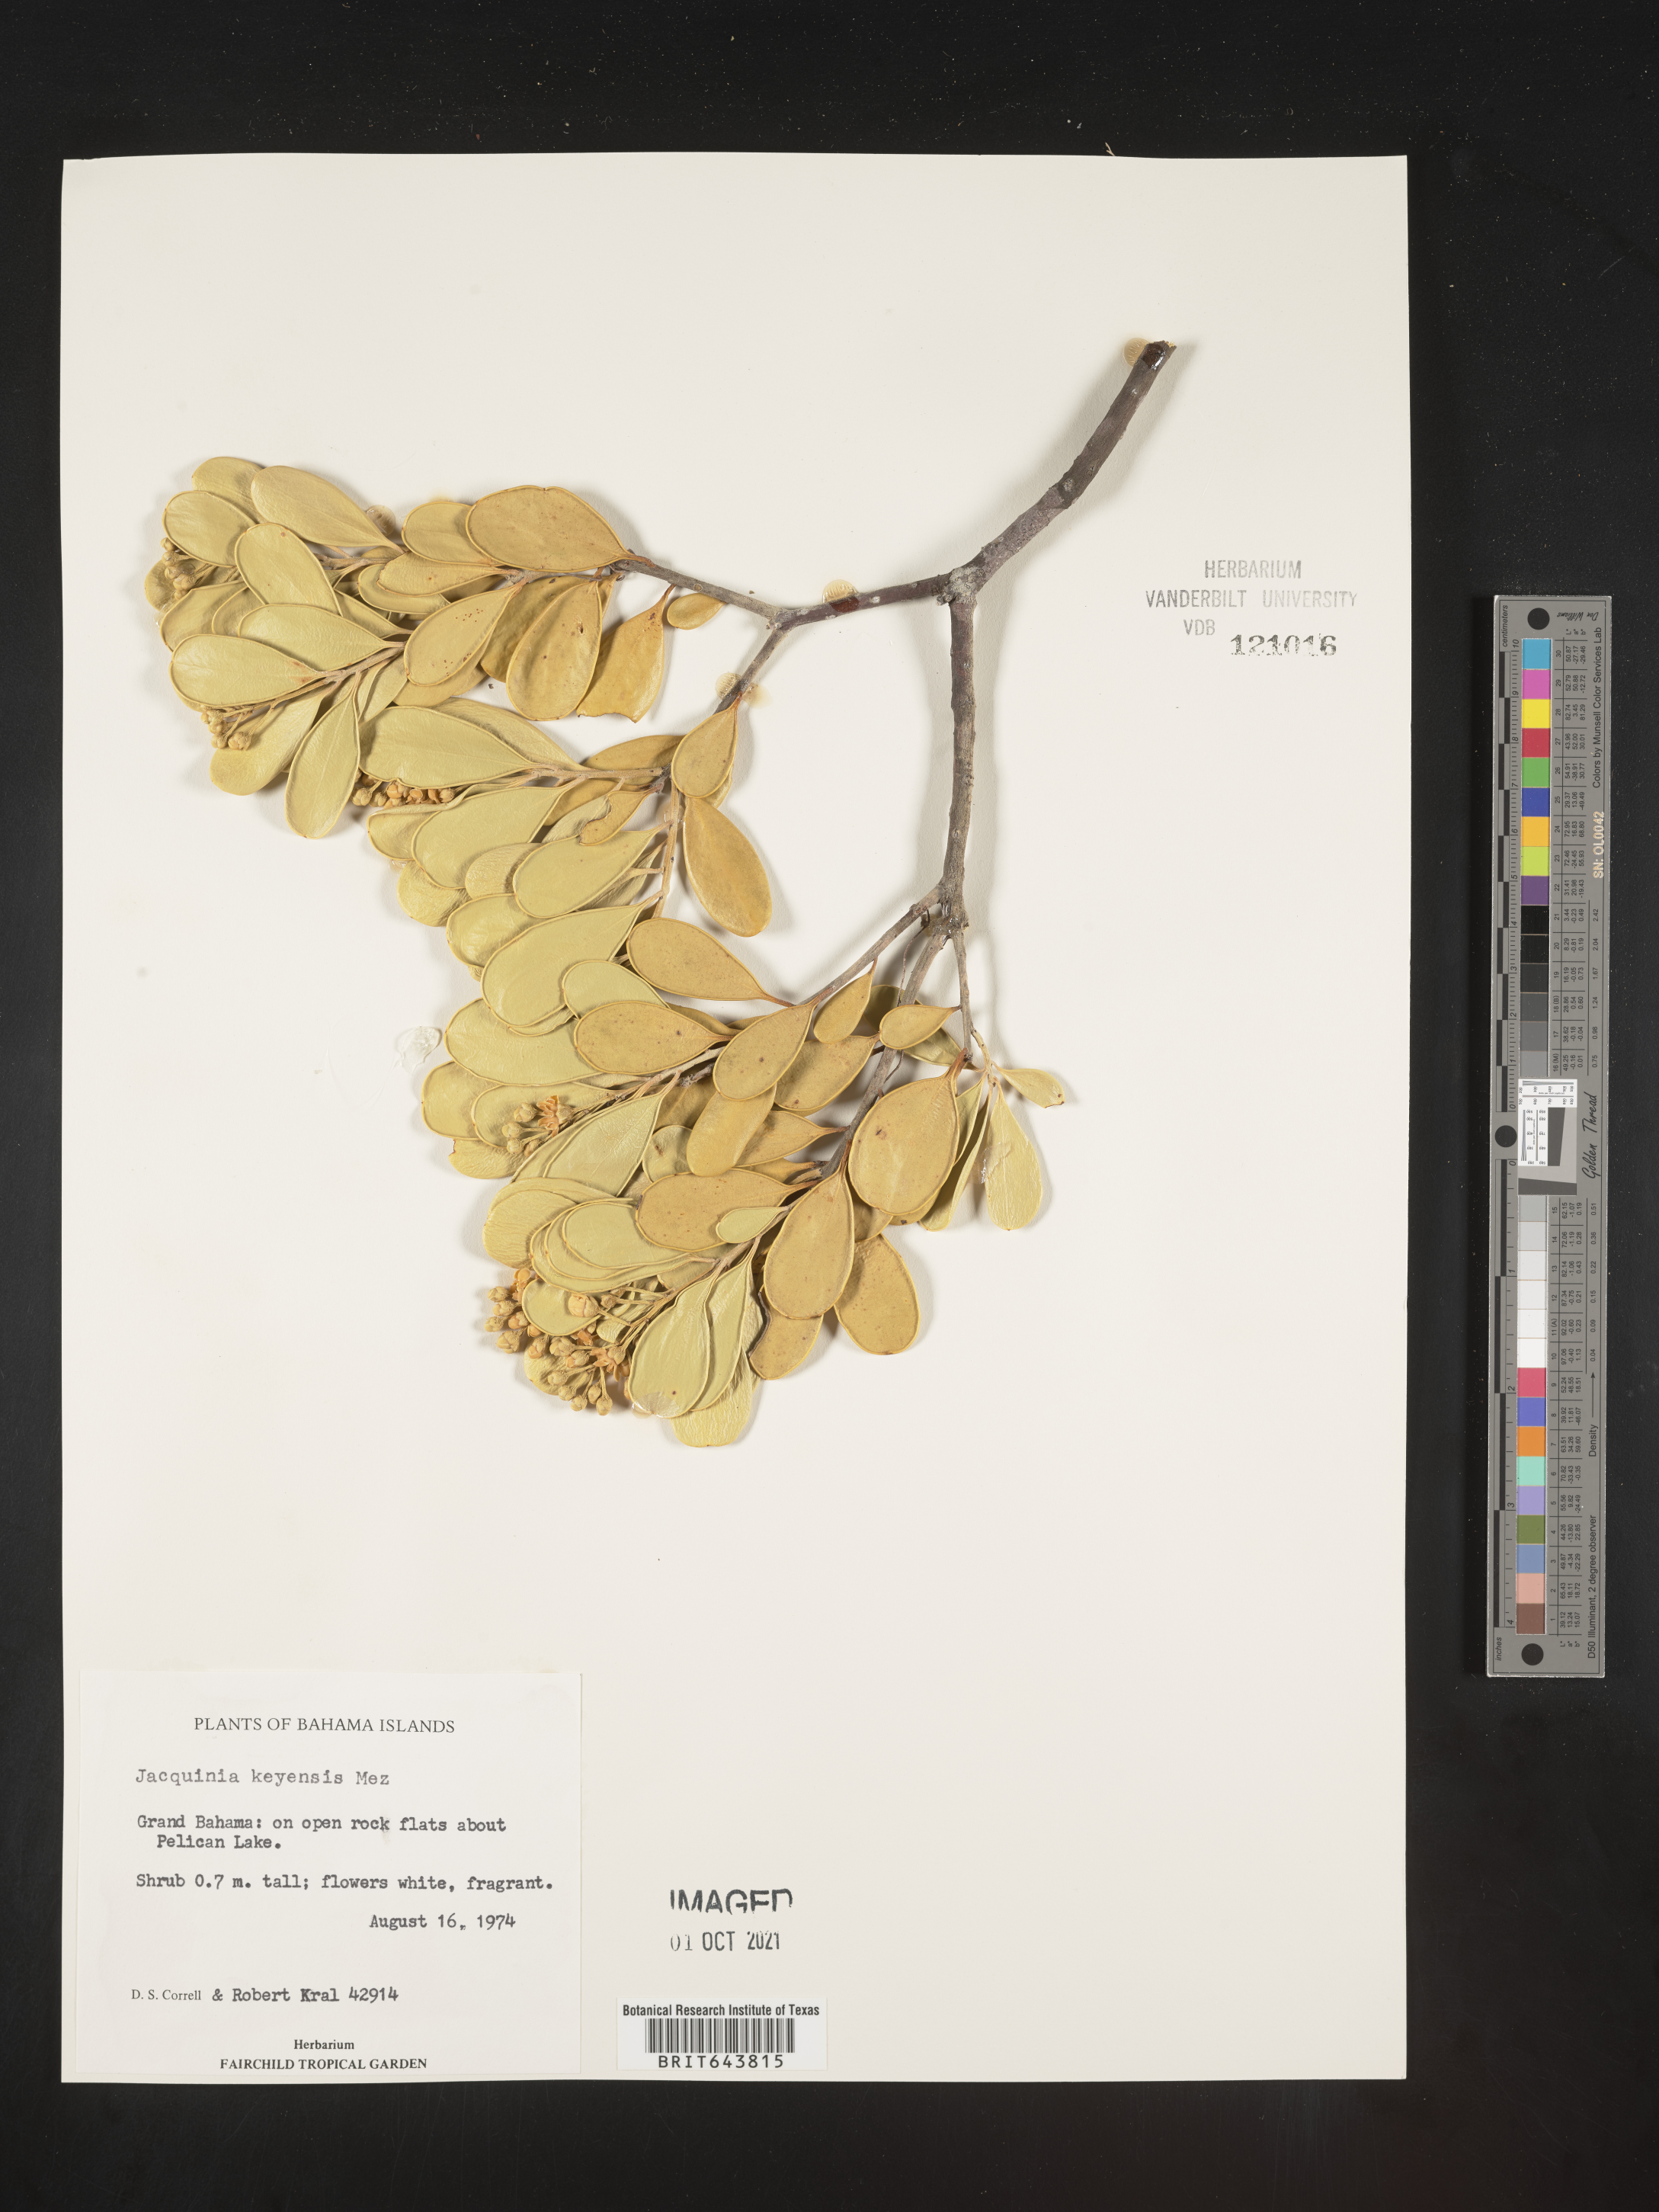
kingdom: Plantae
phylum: Tracheophyta
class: Magnoliopsida
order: Ericales
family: Primulaceae
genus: Jacquinia
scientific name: Jacquinia
